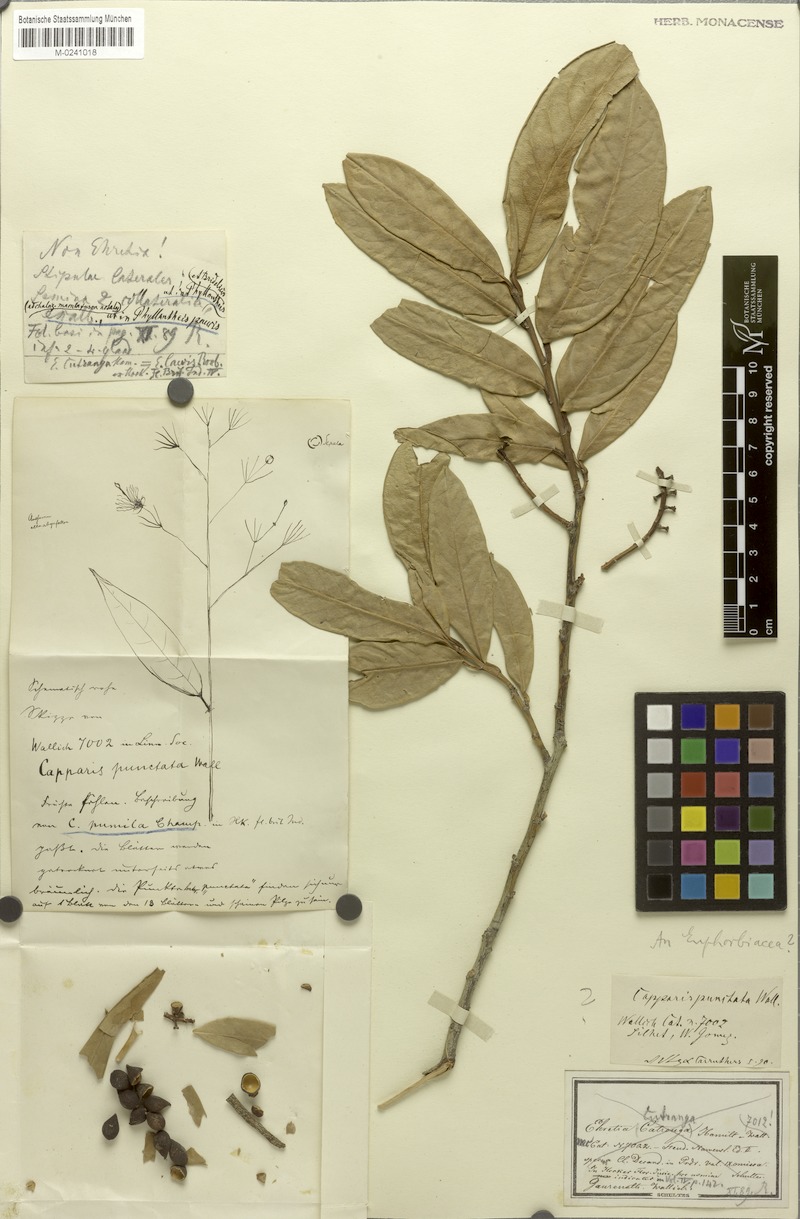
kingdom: Plantae
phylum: Tracheophyta
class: Magnoliopsida
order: Brassicales
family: Capparaceae
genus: Capparis
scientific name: Capparis cantoniensis
